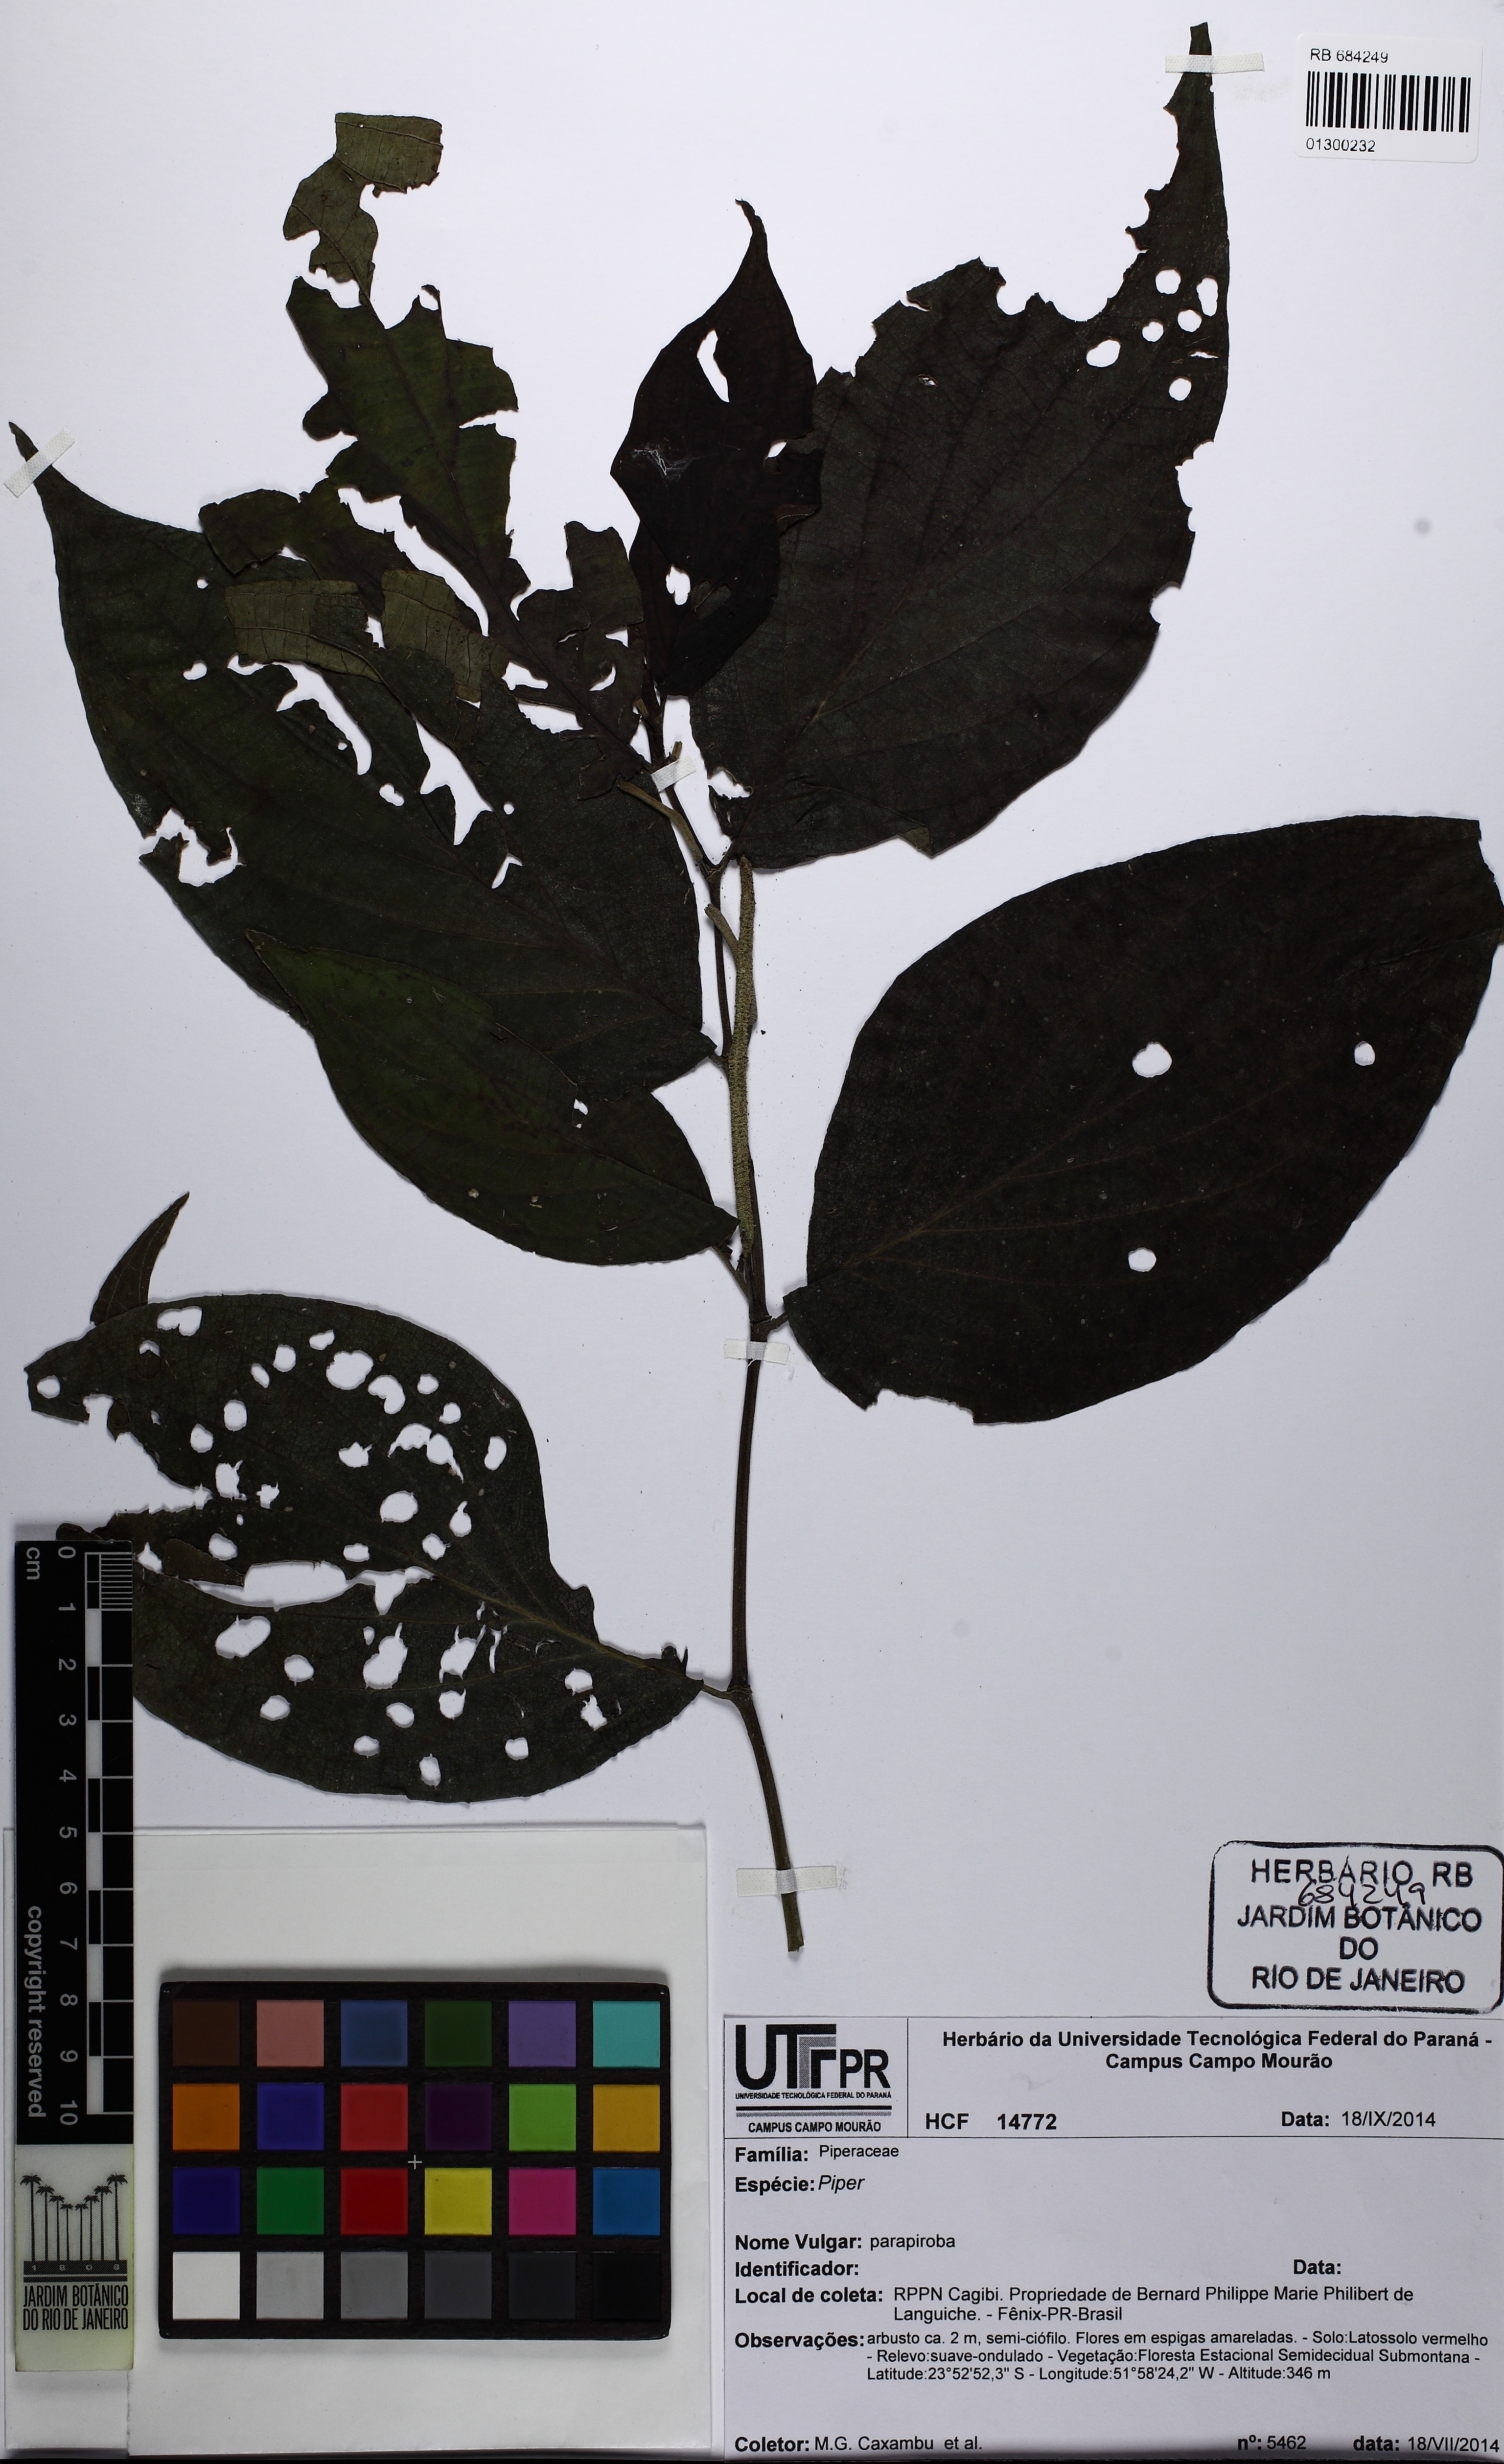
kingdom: Plantae
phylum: Tracheophyta
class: Magnoliopsida
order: Piperales
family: Piperaceae
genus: Piper
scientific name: Piper
